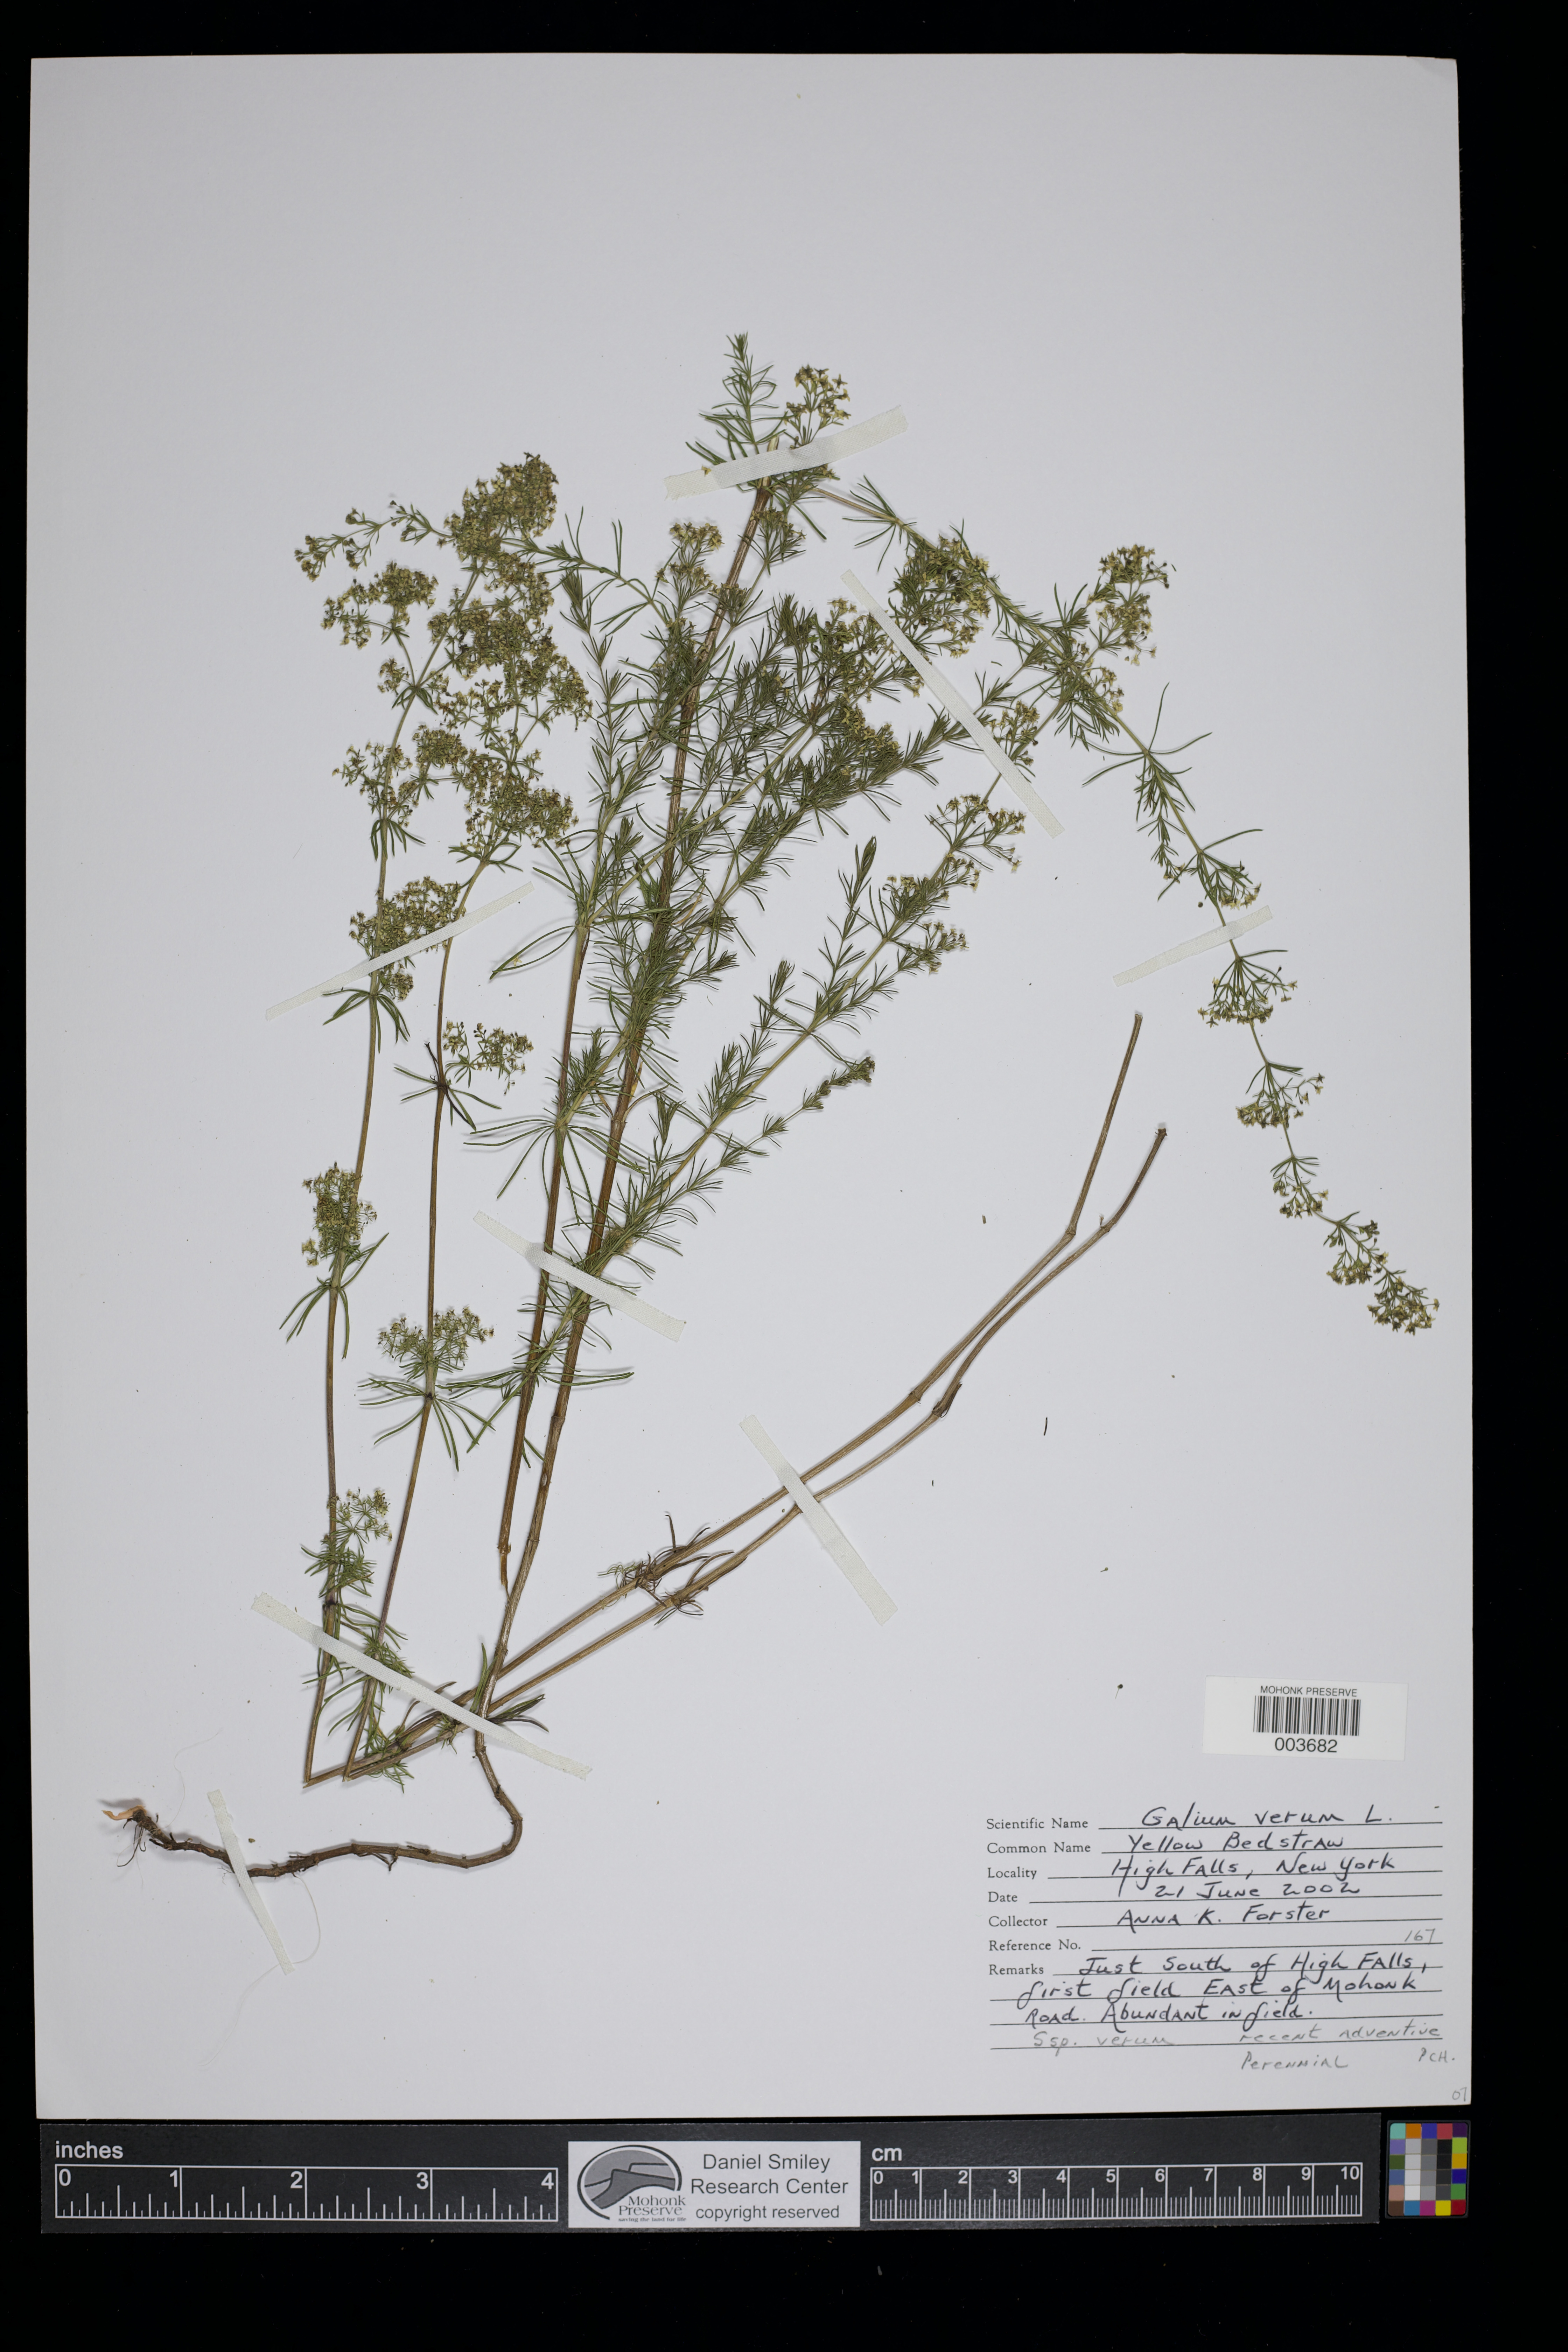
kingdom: Plantae
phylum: Tracheophyta
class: Magnoliopsida
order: Gentianales
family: Rubiaceae
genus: Galium
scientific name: Galium verum
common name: Lady's bedstraw
